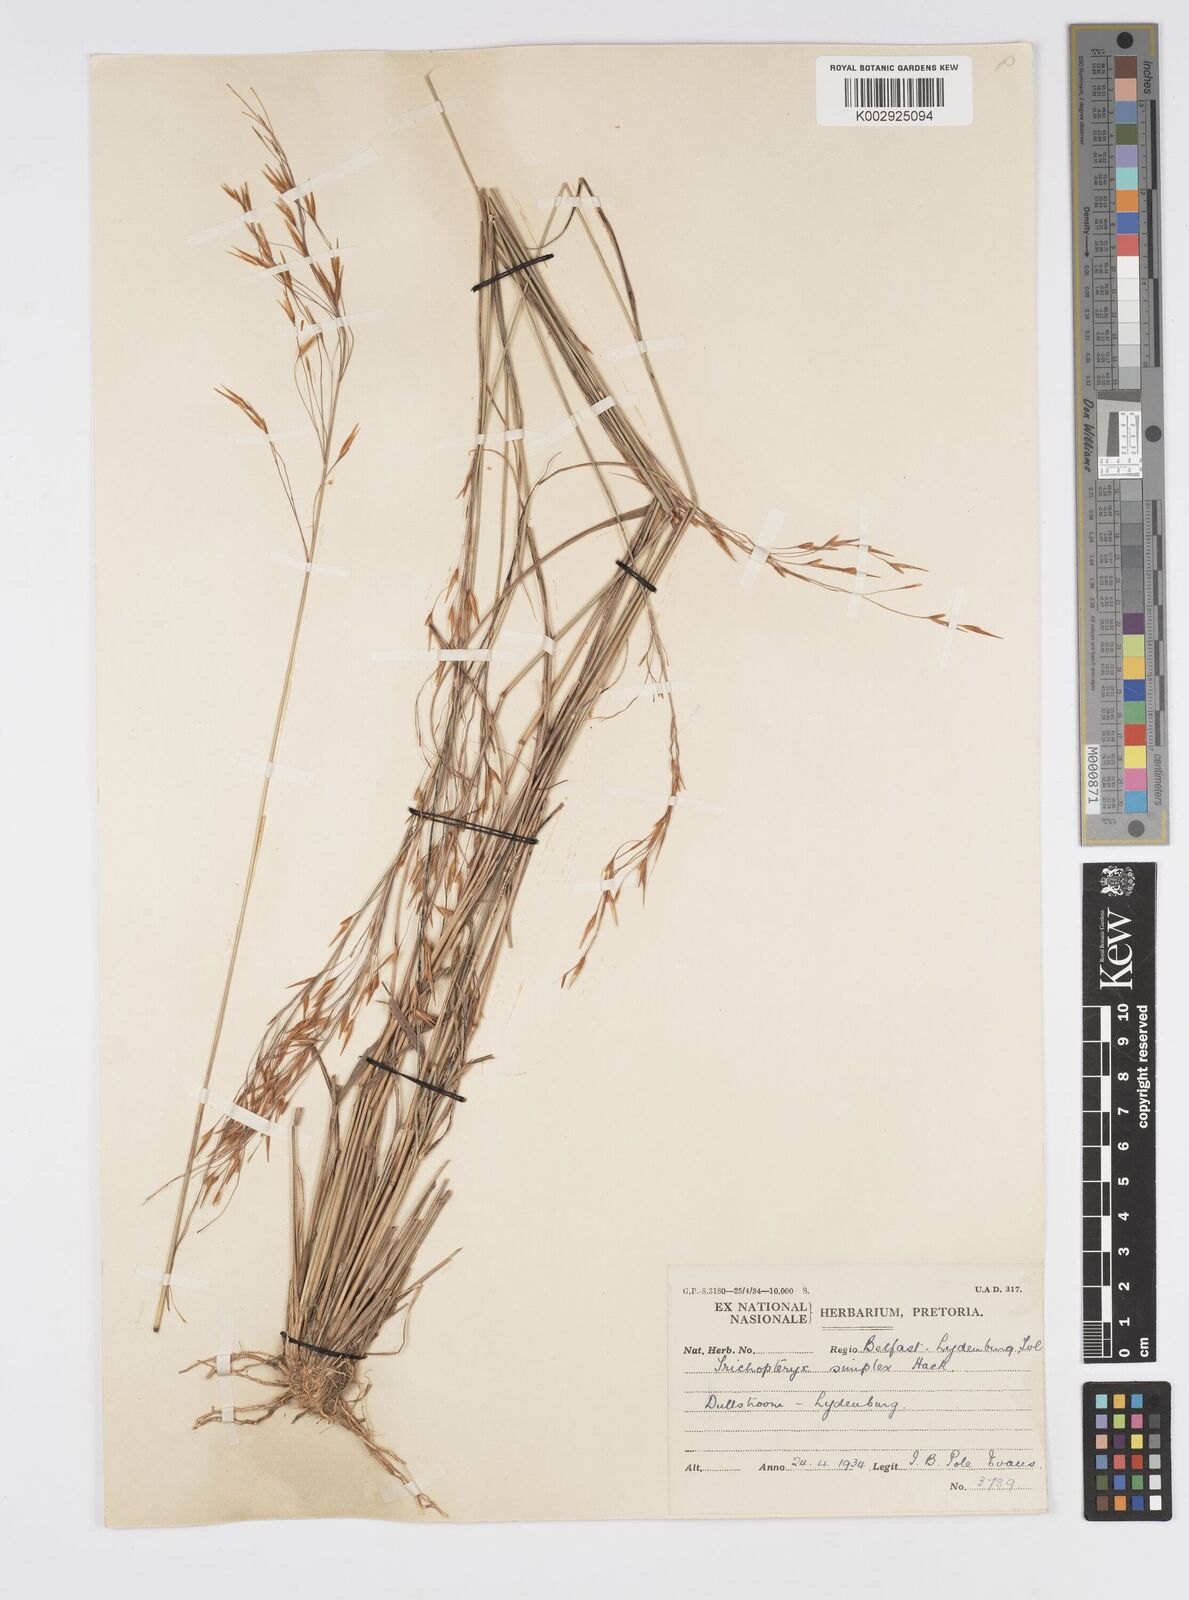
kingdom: Plantae
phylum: Tracheophyta
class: Liliopsida
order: Poales
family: Poaceae
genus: Loudetia
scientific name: Loudetia simplex
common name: Common russet grass
